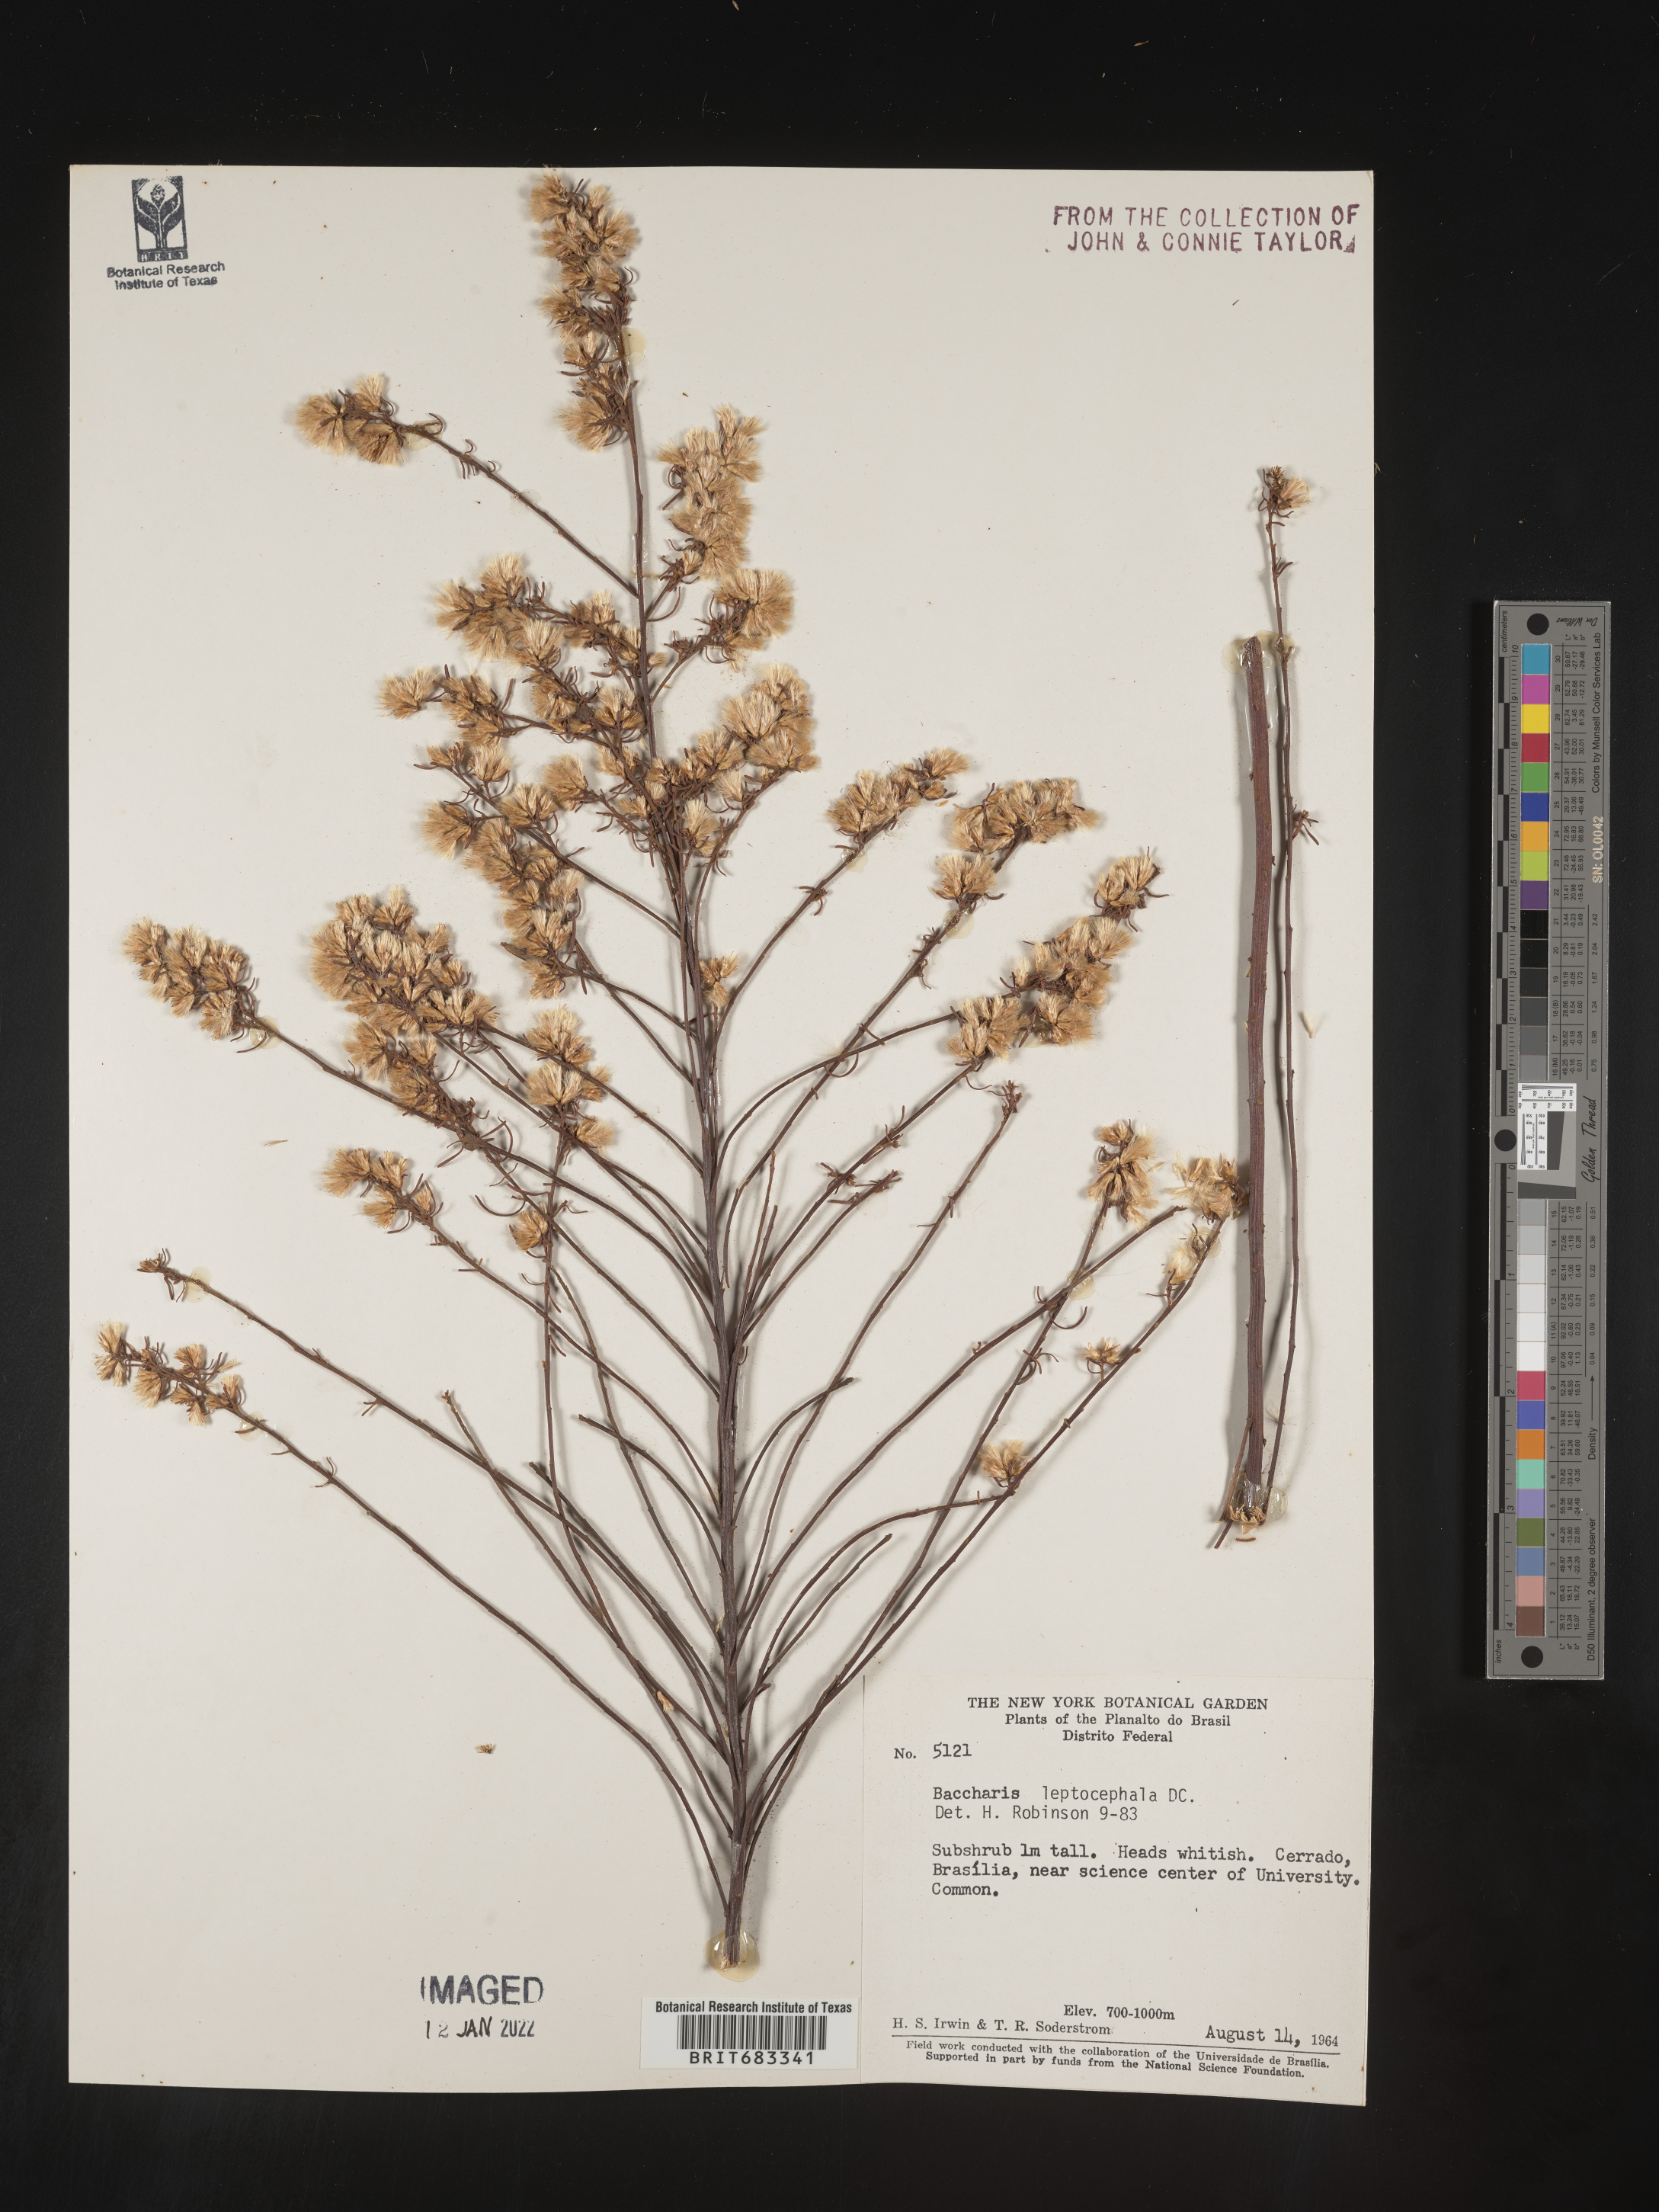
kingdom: Plantae
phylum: Tracheophyta
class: Magnoliopsida
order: Asterales
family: Asteraceae
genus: Baccharis
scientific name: Baccharis
